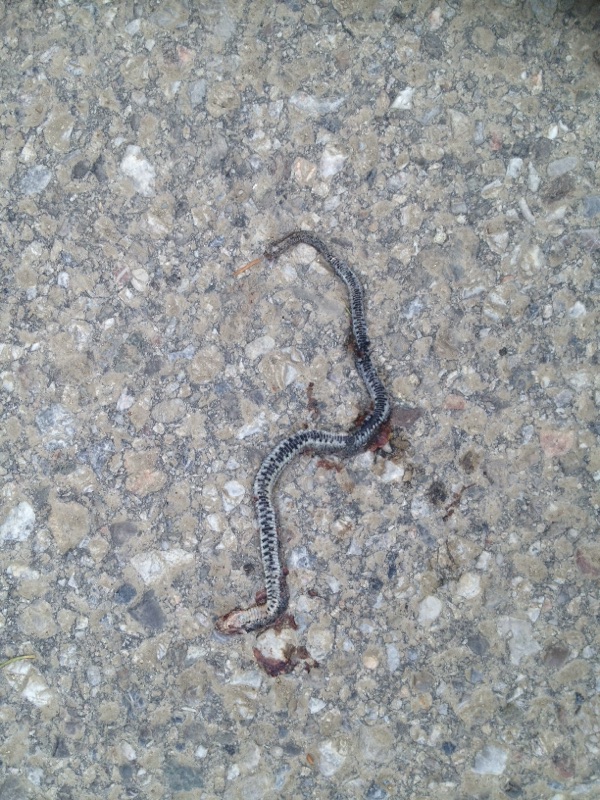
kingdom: Animalia
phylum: Chordata
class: Squamata
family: Colubridae
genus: Natrix
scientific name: Natrix natrix
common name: Grass snake
